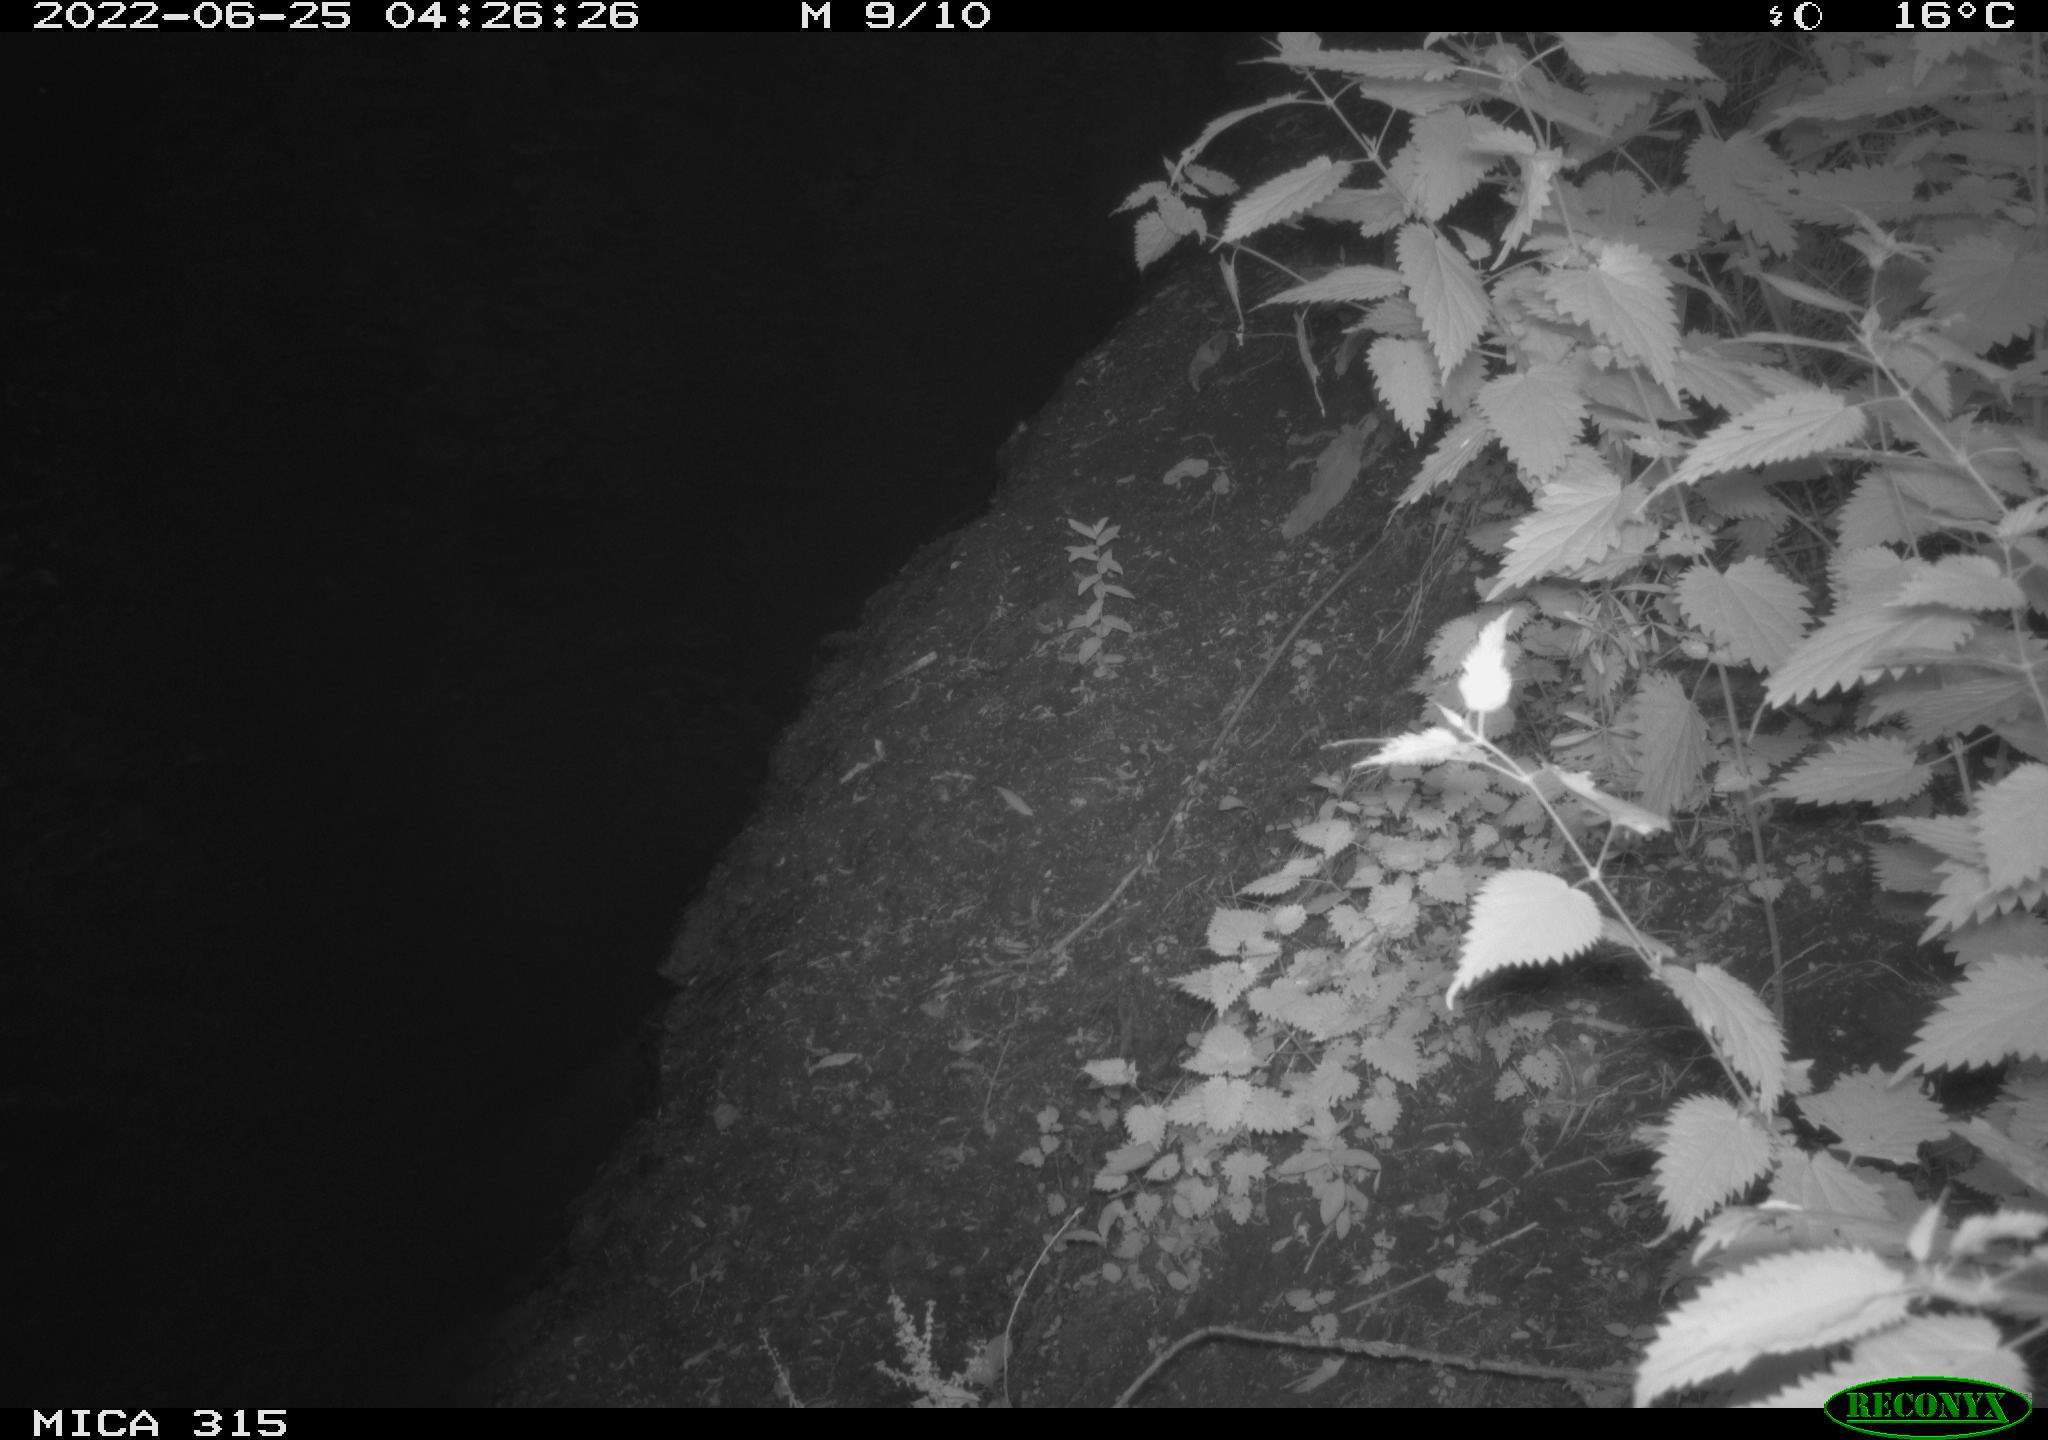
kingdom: Animalia
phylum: Chordata
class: Mammalia
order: Carnivora
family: Canidae
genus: Vulpes
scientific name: Vulpes vulpes
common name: Red fox
